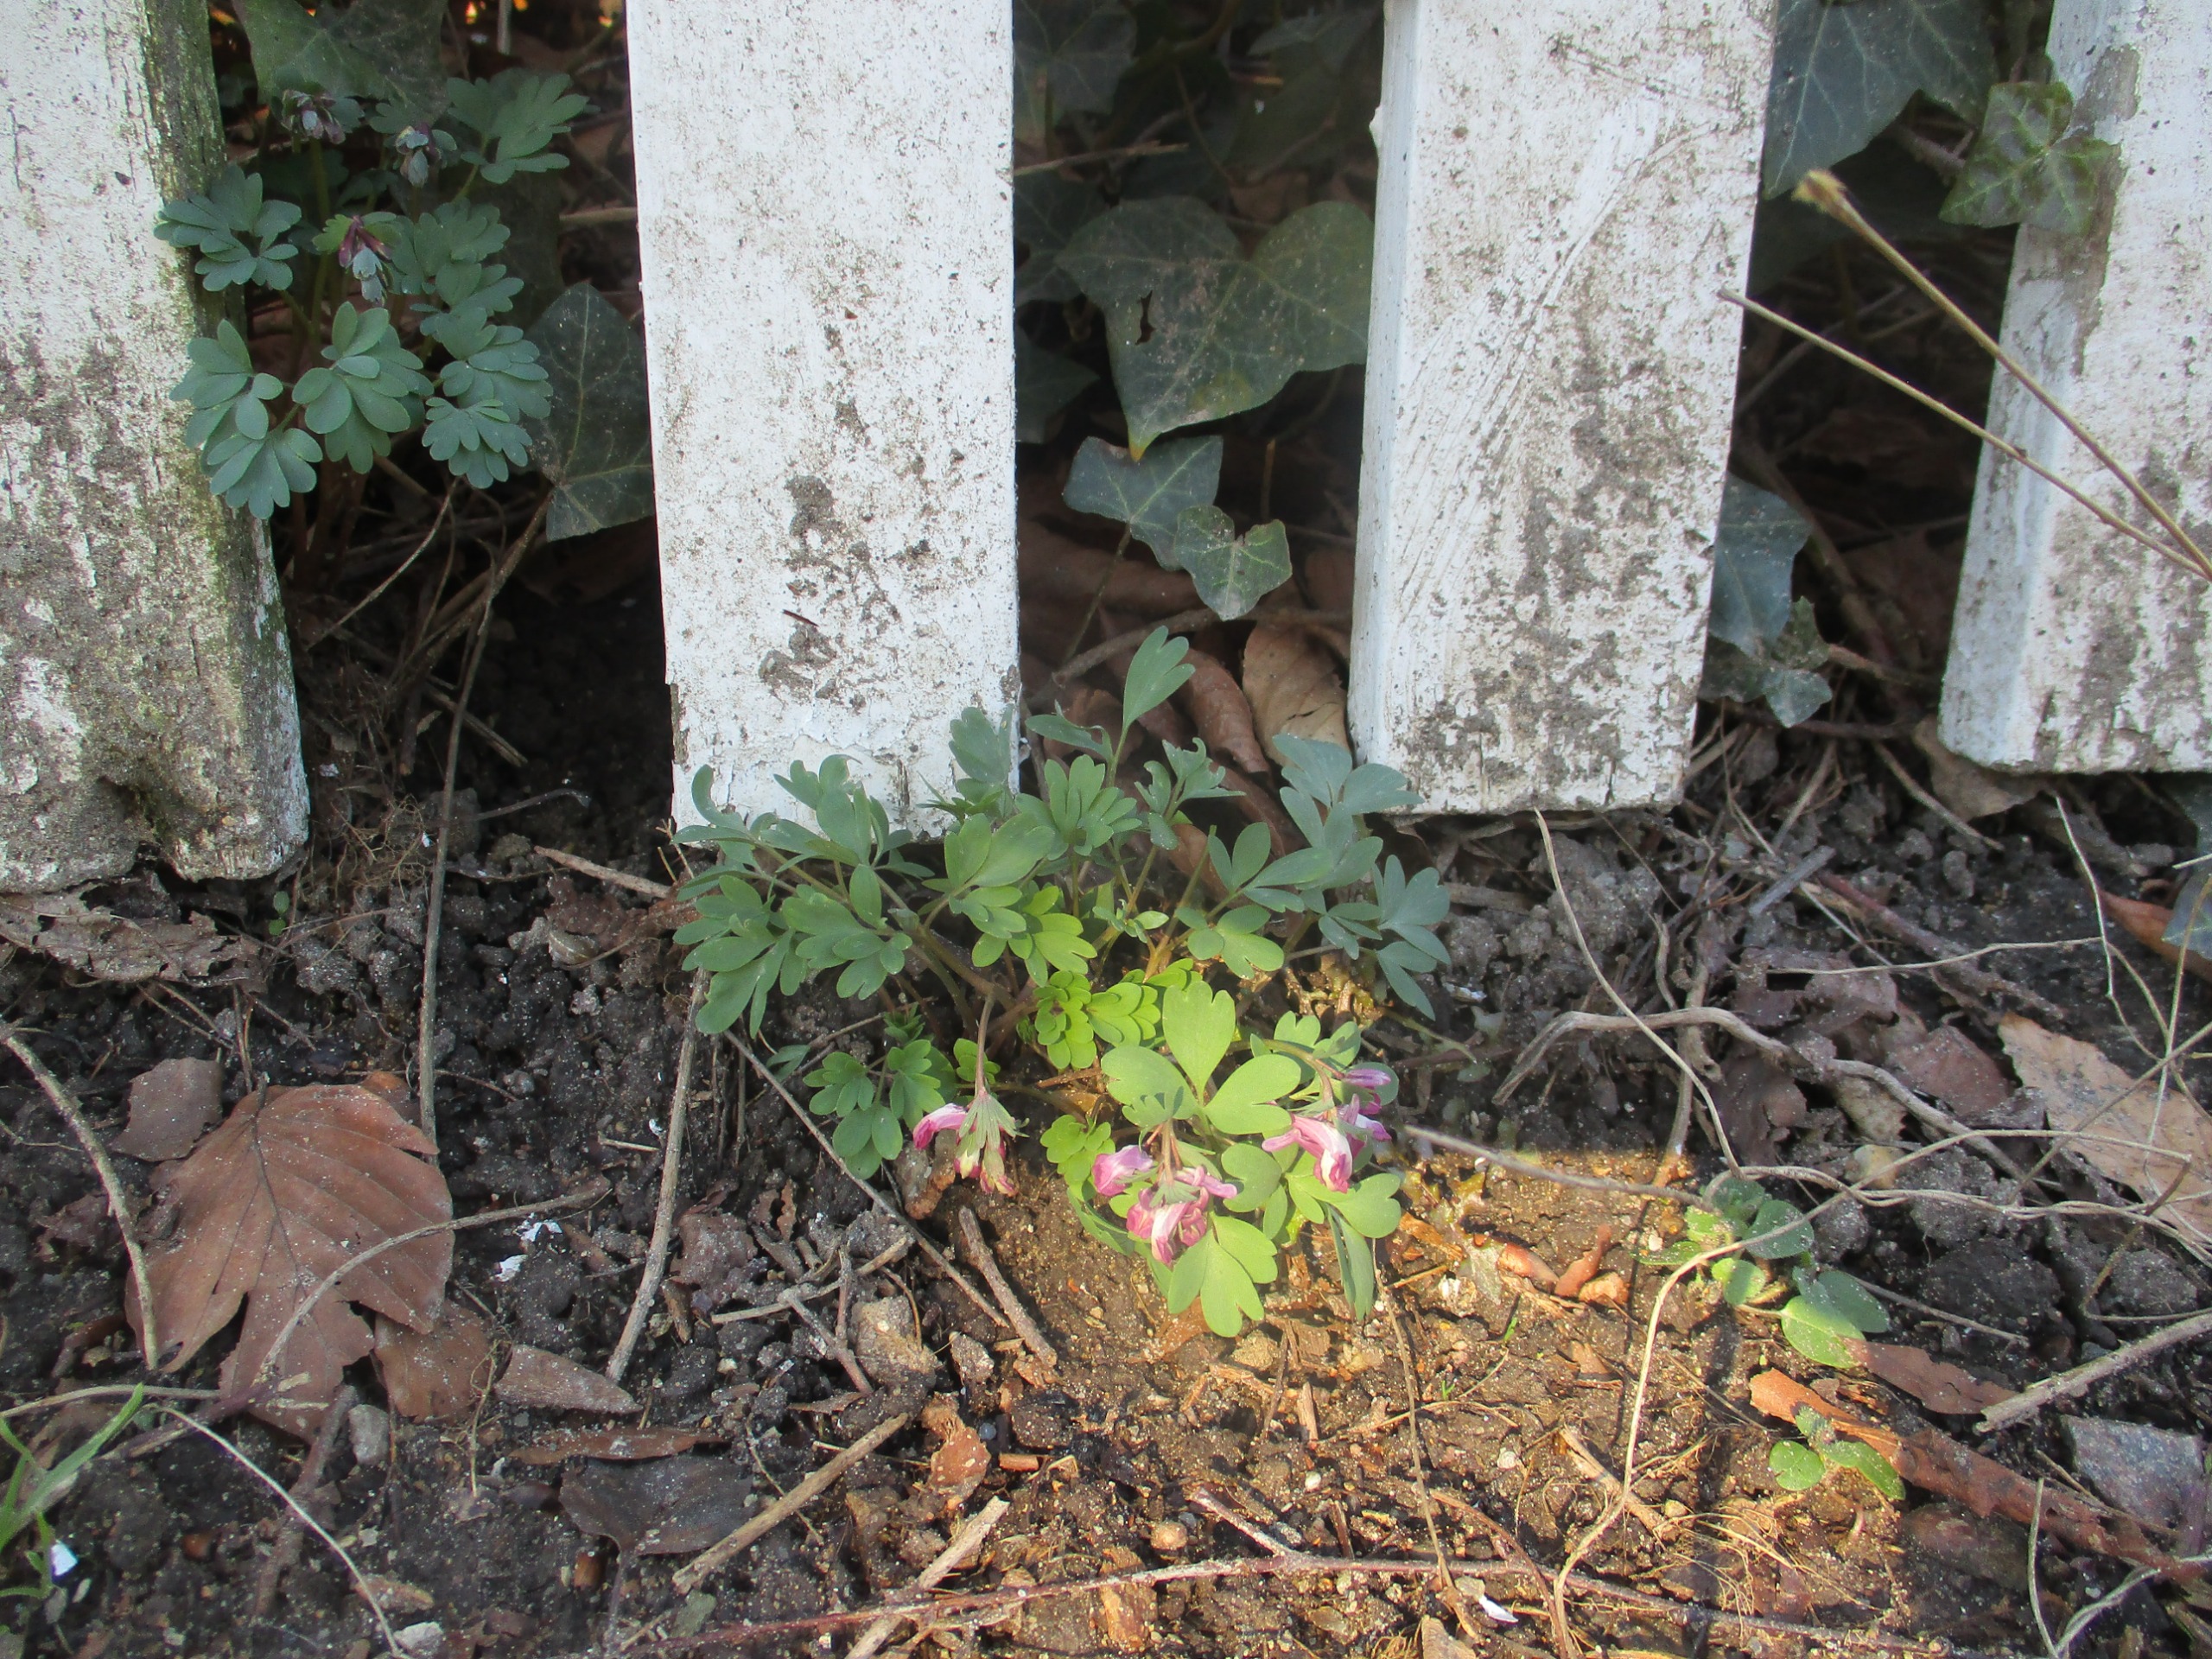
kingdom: Plantae
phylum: Tracheophyta
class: Magnoliopsida
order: Ranunculales
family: Papaveraceae
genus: Corydalis
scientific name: Corydalis solida
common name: Langstilket lærkespore
